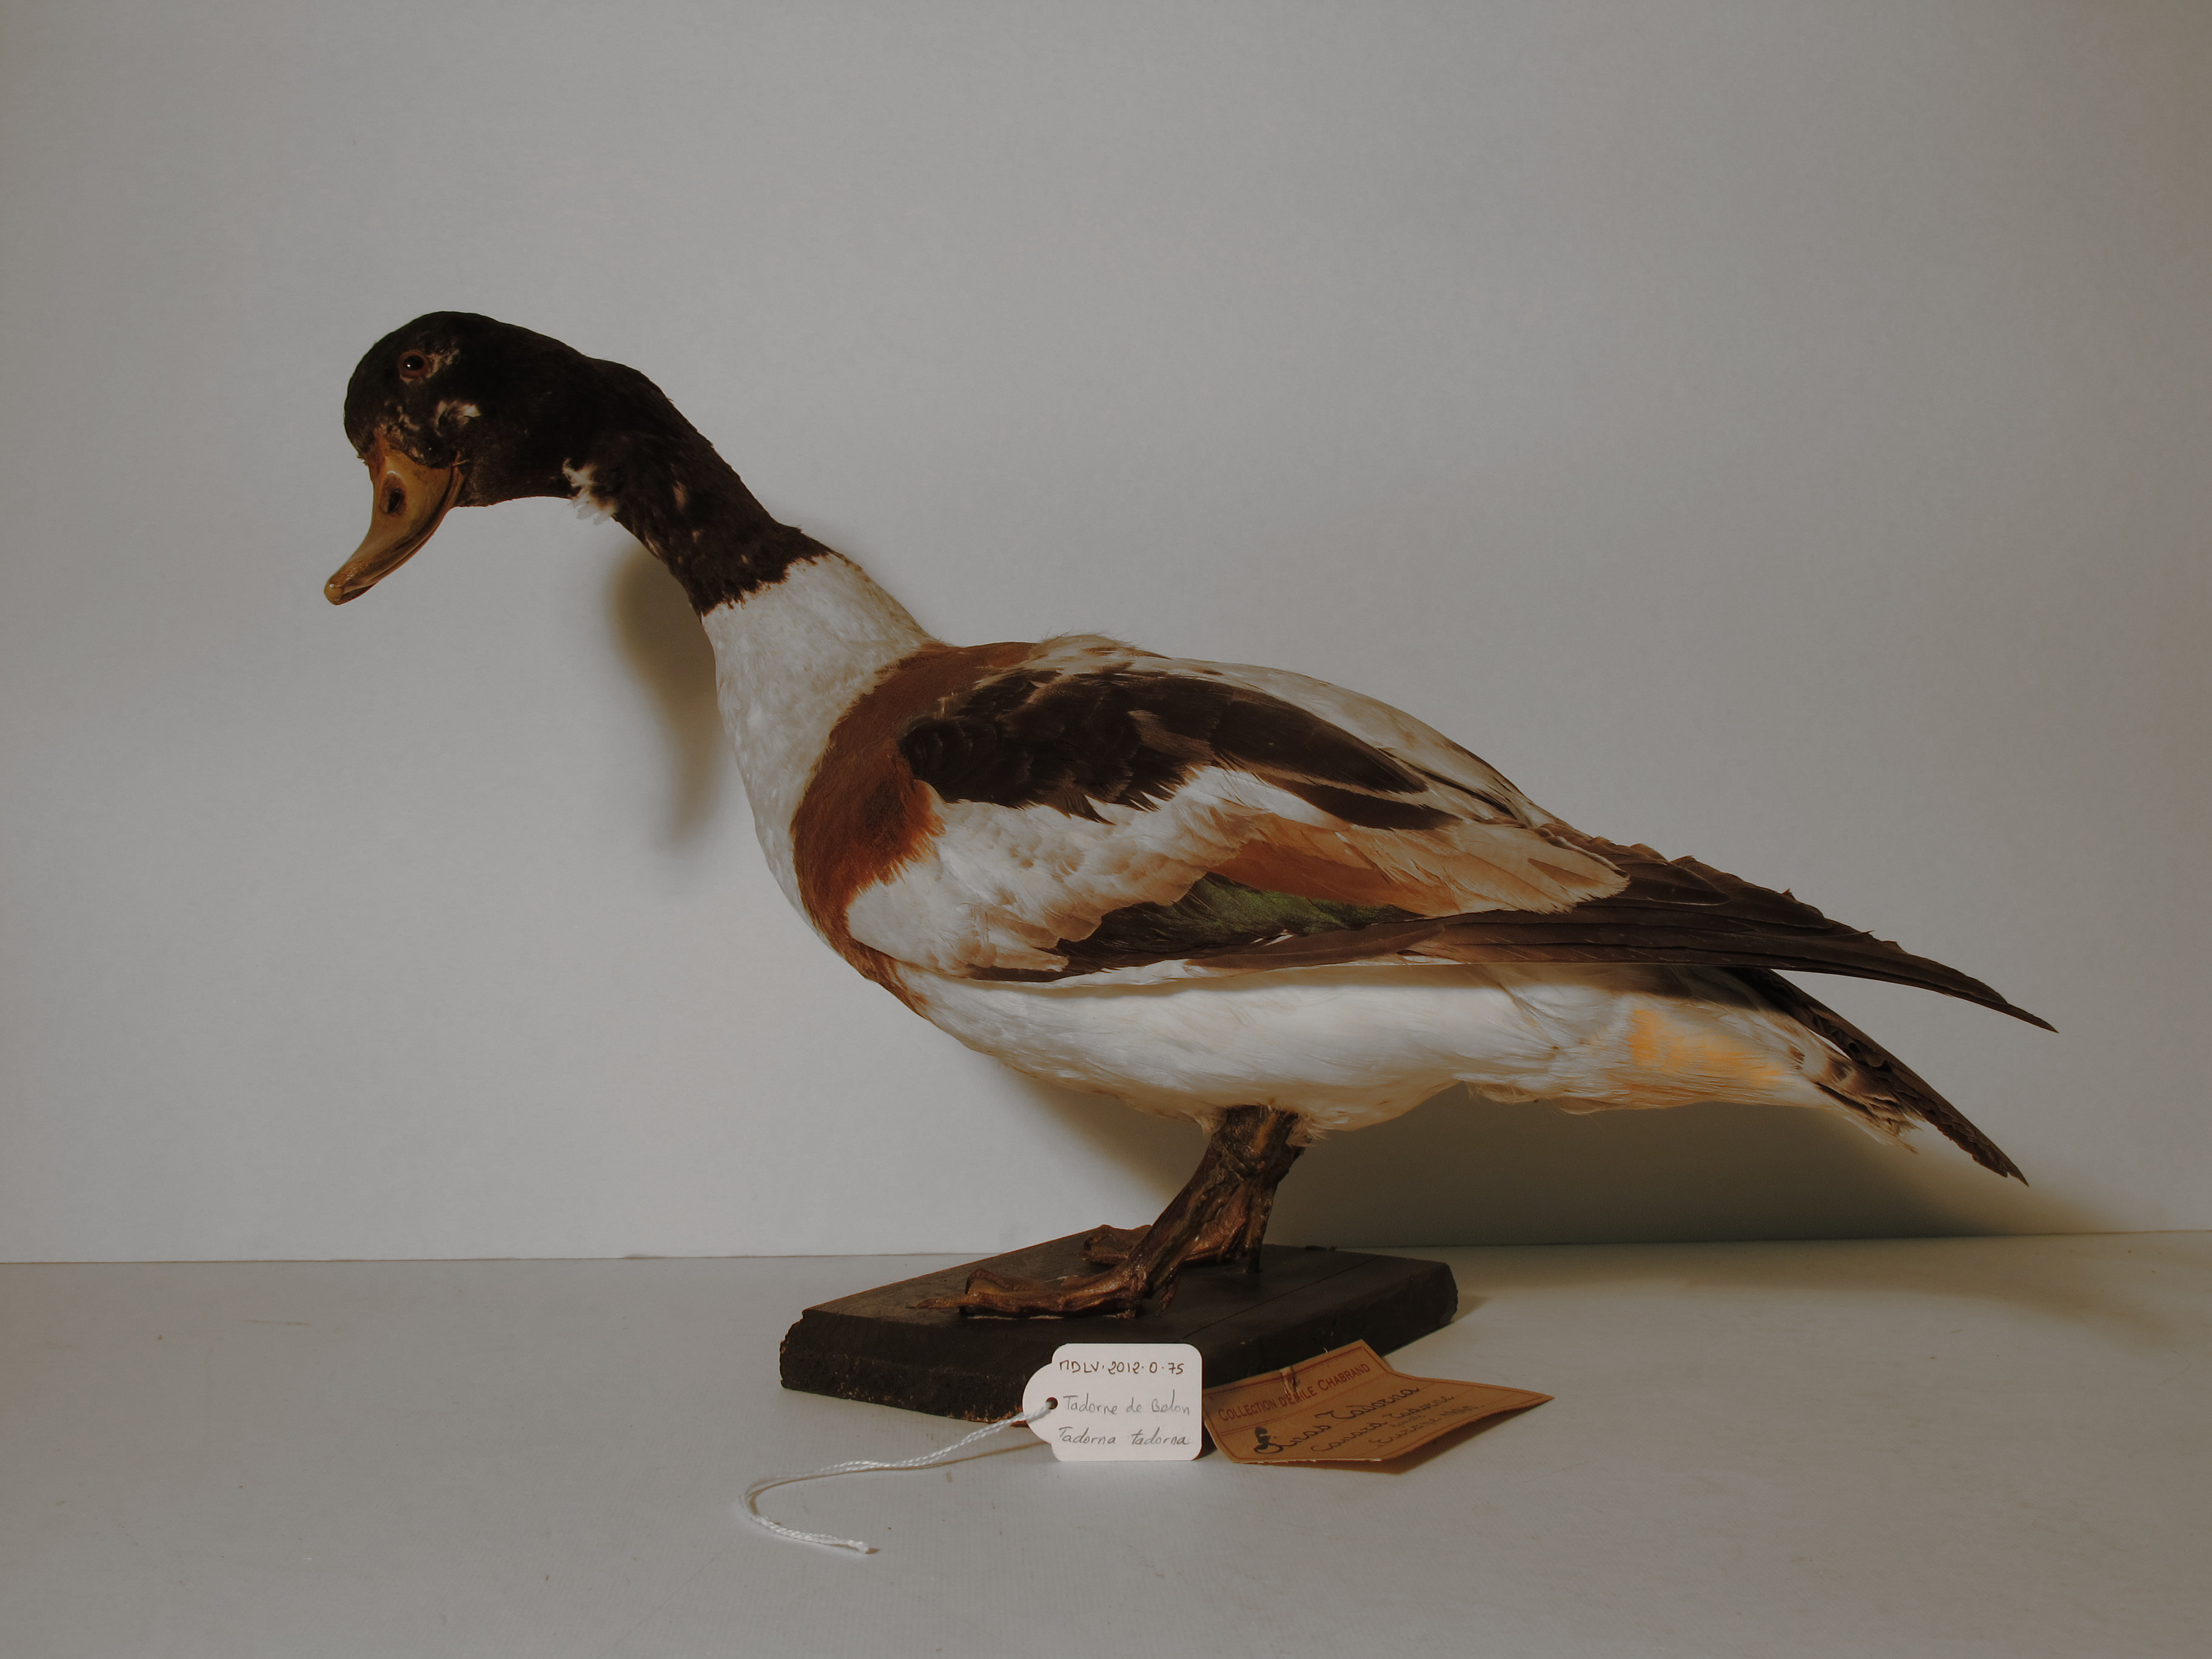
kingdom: Animalia
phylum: Chordata
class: Aves
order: Anseriformes
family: Anatidae
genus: Tadorna
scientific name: Tadorna tadorna
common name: Common Shelduck
